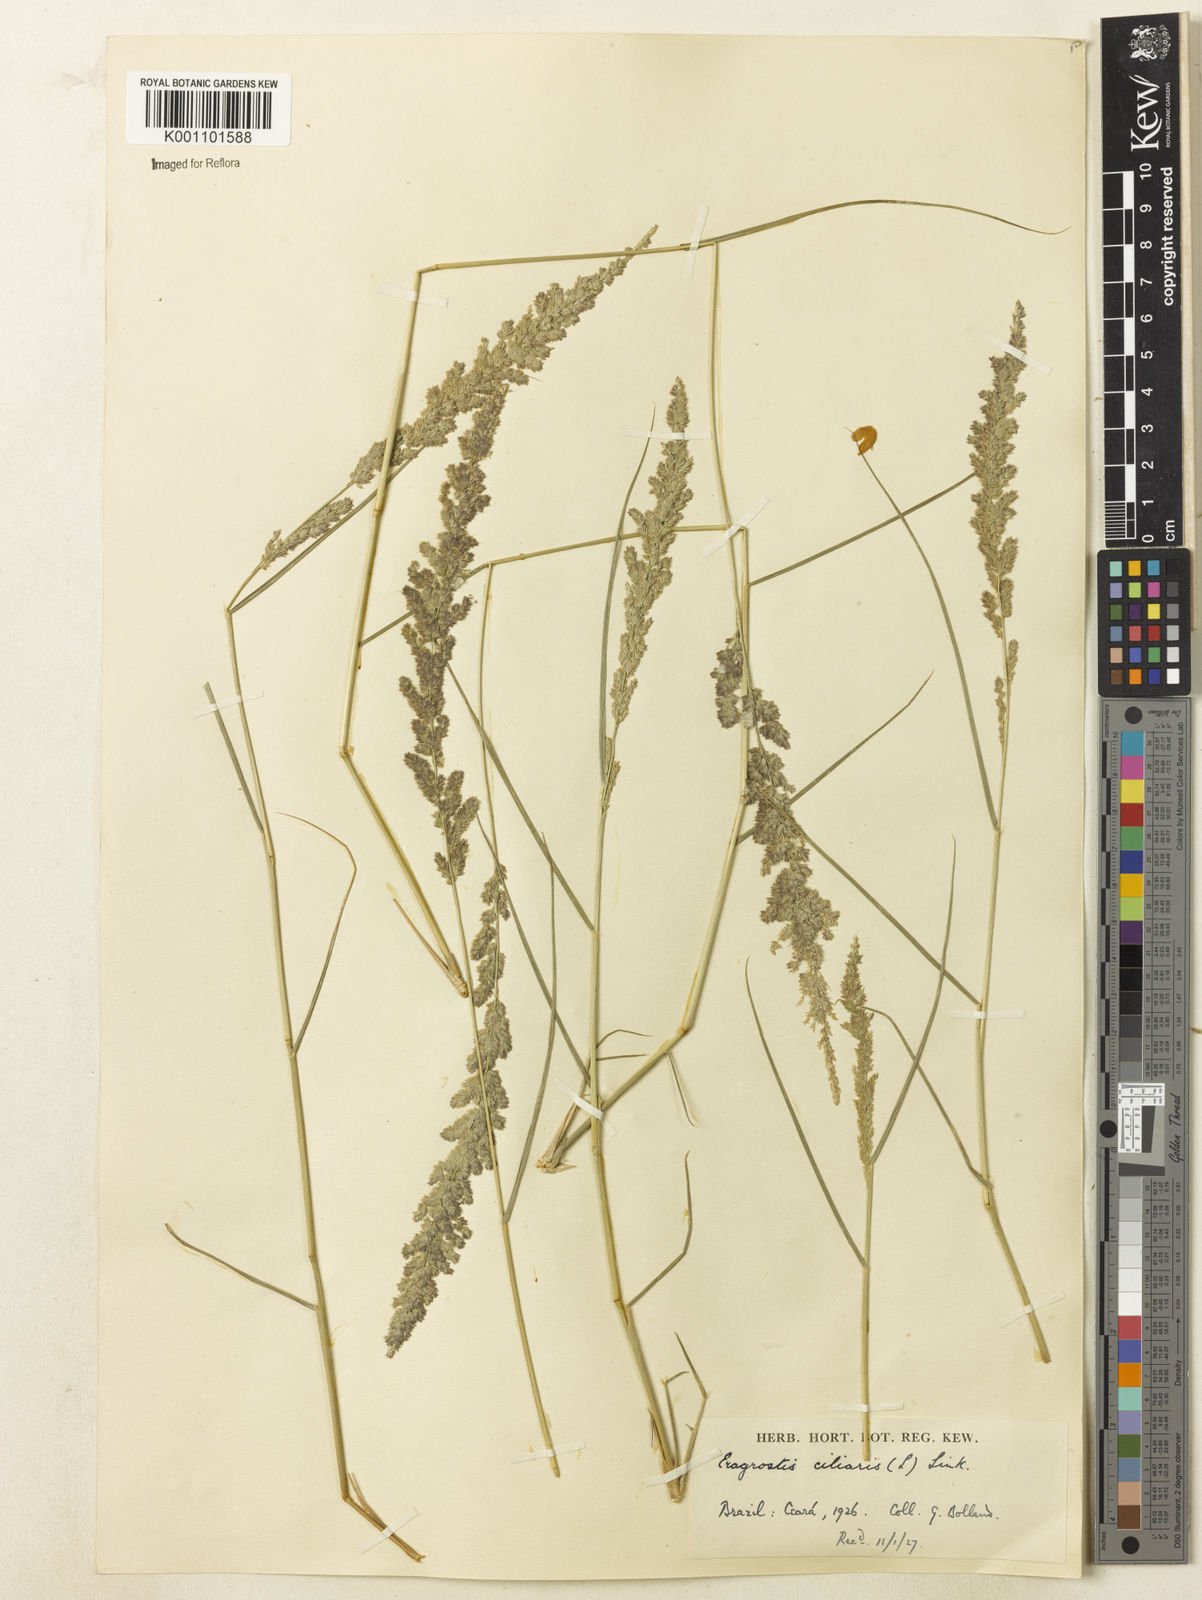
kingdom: Plantae
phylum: Tracheophyta
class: Liliopsida
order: Poales
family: Poaceae
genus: Eragrostis
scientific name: Eragrostis ciliaris
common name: Gophertail lovegrass
